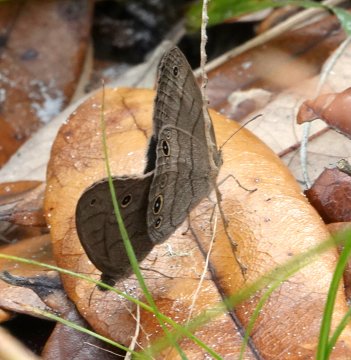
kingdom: Animalia
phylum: Arthropoda
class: Insecta
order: Lepidoptera
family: Nymphalidae
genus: Hermeuptychia
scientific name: Hermeuptychia hermes
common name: Carolina Satyr
